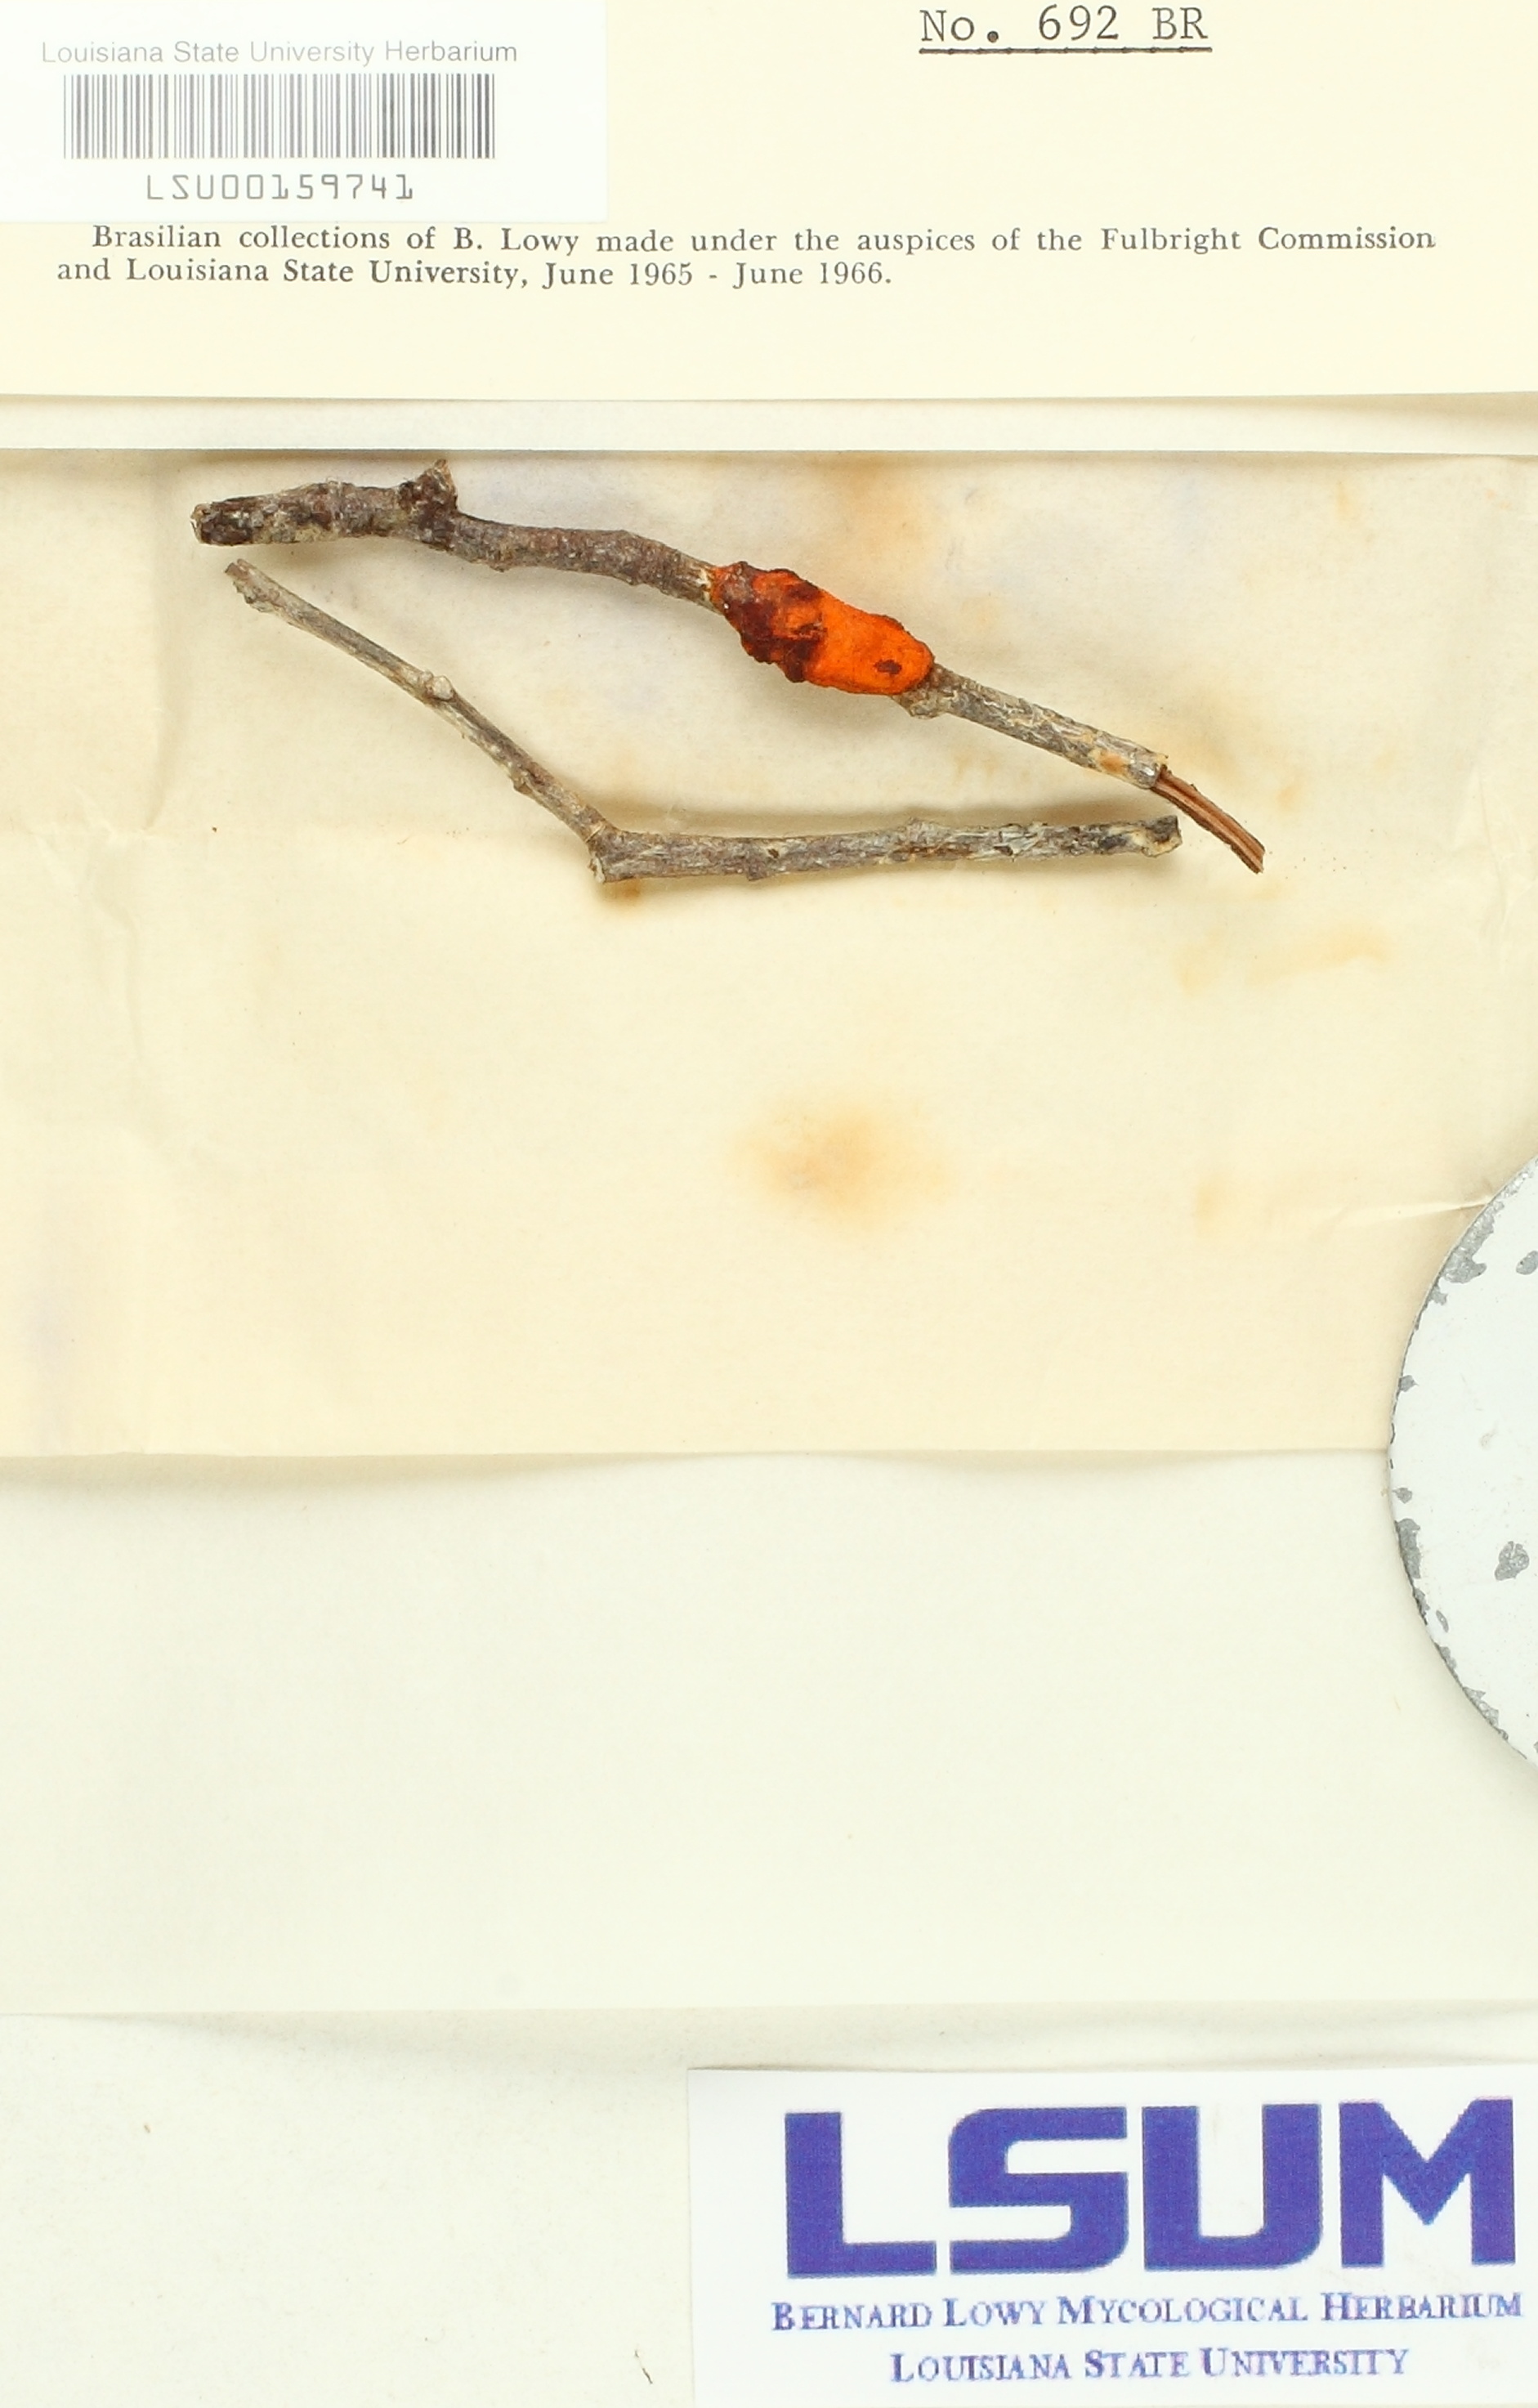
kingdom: Fungi
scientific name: Fungi
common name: Fungi
